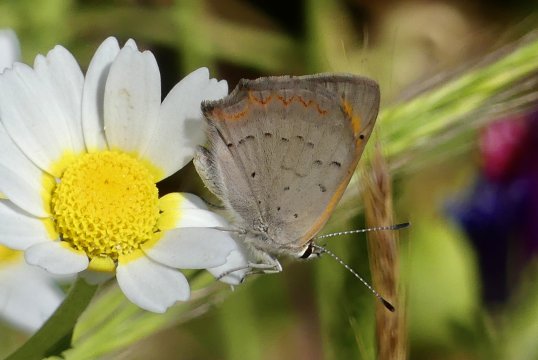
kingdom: Animalia
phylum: Arthropoda
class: Insecta
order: Lepidoptera
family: Lycaenidae
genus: Lycaena
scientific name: Lycaena phlaeas
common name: American Copper
